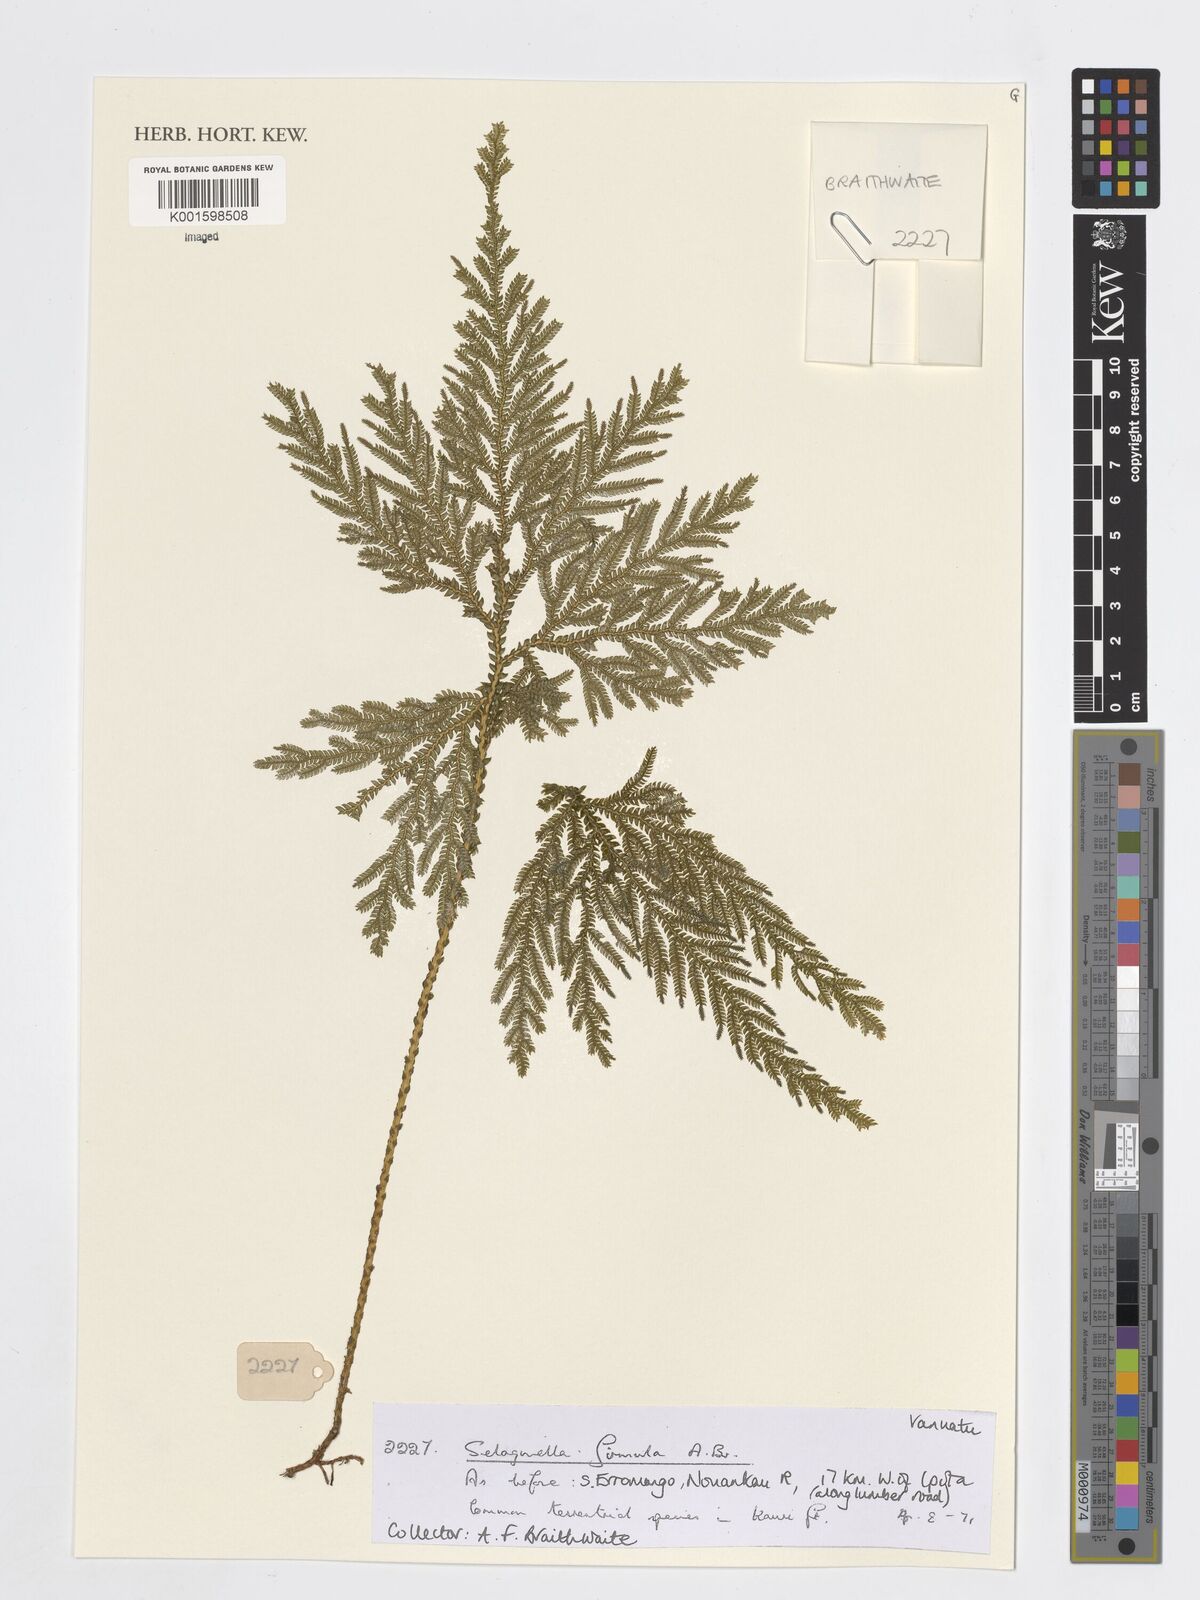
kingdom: Plantae
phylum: Tracheophyta
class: Lycopodiopsida
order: Selaginellales
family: Selaginellaceae
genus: Selaginella
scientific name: Selaginella firmula
